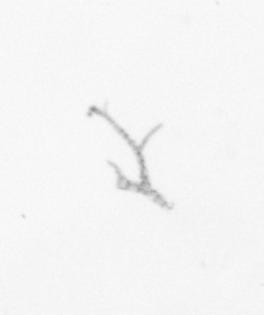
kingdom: Chromista
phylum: Ochrophyta
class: Bacillariophyceae
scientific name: Bacillariophyceae
